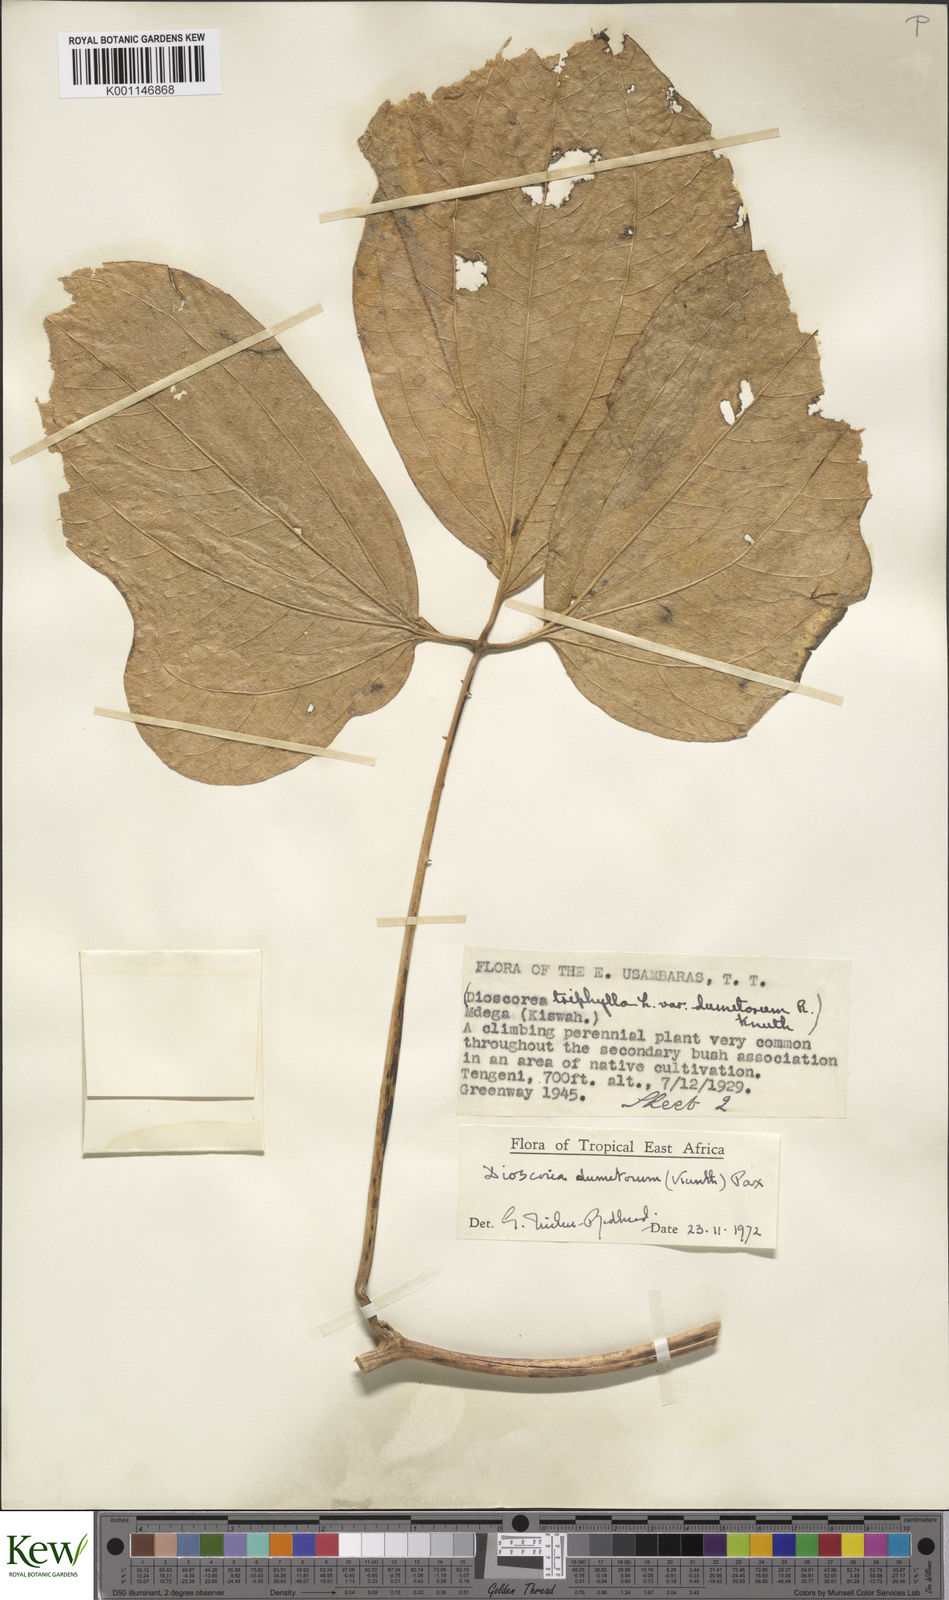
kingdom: Plantae
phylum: Tracheophyta
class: Liliopsida
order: Dioscoreales
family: Dioscoreaceae
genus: Dioscorea
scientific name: Dioscorea dumetorum
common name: African bitter yam
